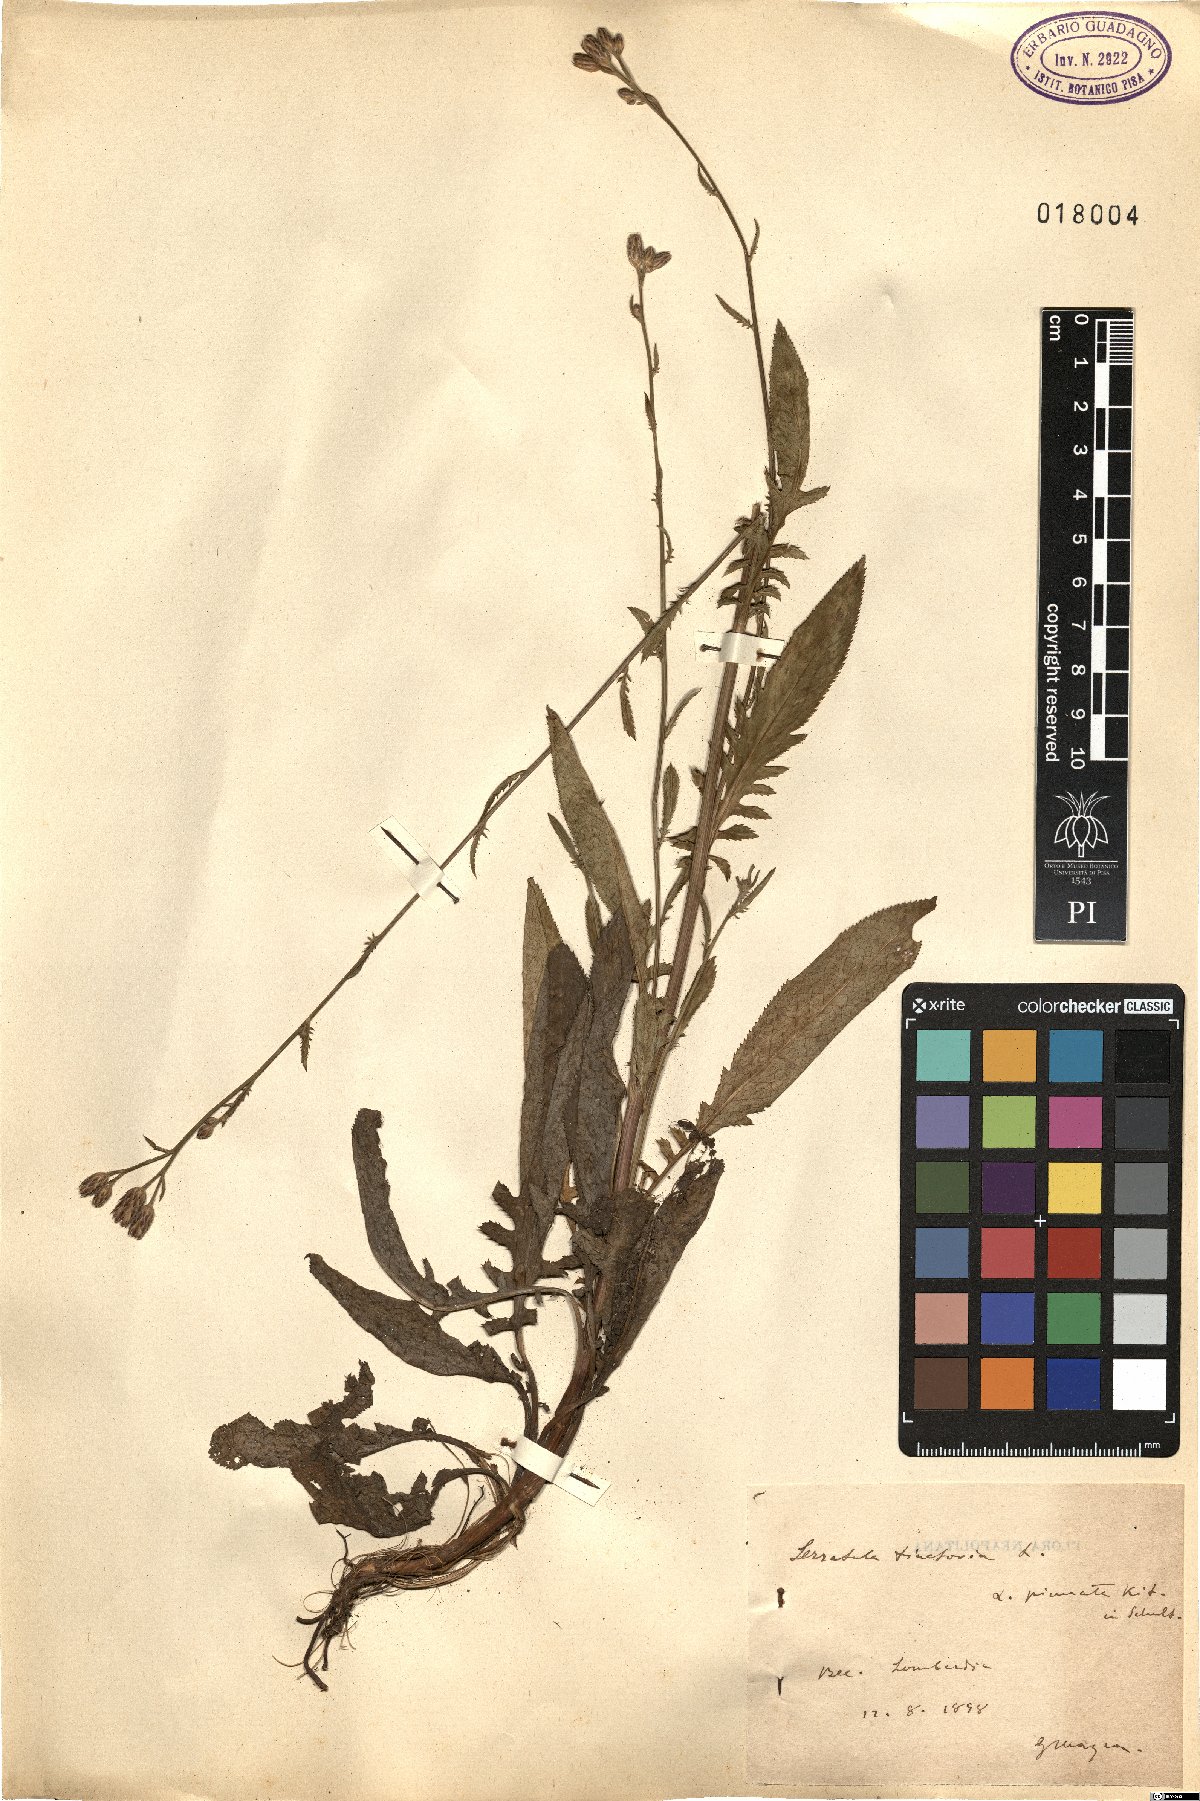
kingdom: Plantae
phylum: Tracheophyta
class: Magnoliopsida
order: Asterales
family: Asteraceae
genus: Serratula
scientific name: Serratula tinctoria
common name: Saw-wort
